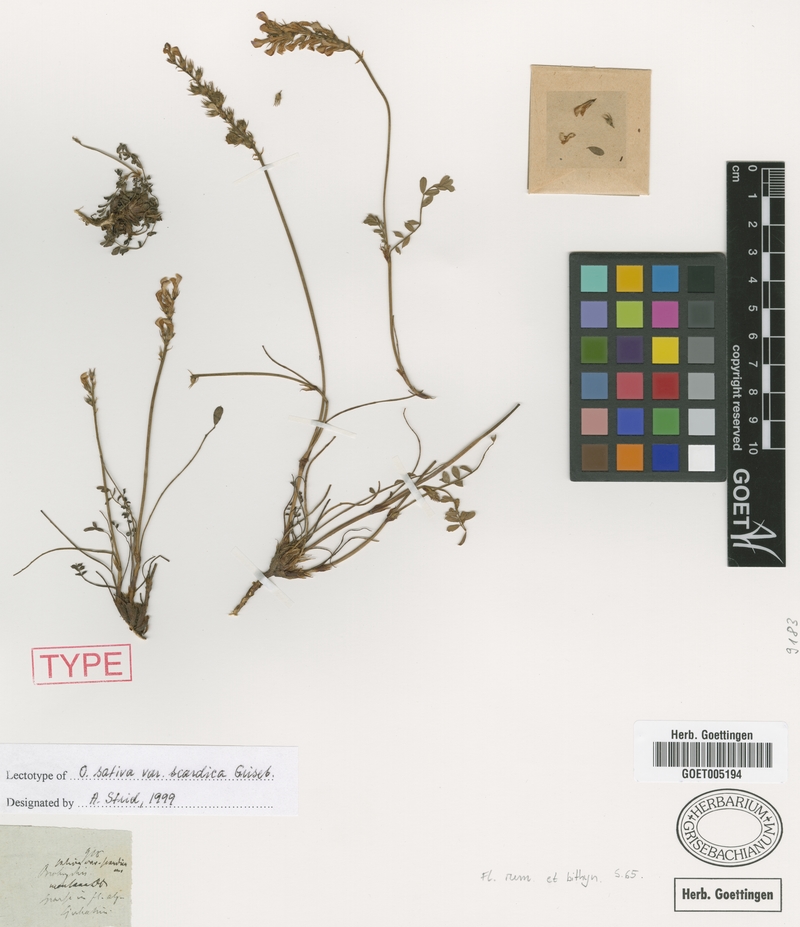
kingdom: Plantae
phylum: Tracheophyta
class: Magnoliopsida
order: Fabales
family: Fabaceae
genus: Onobrychis
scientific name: Onobrychis montana
